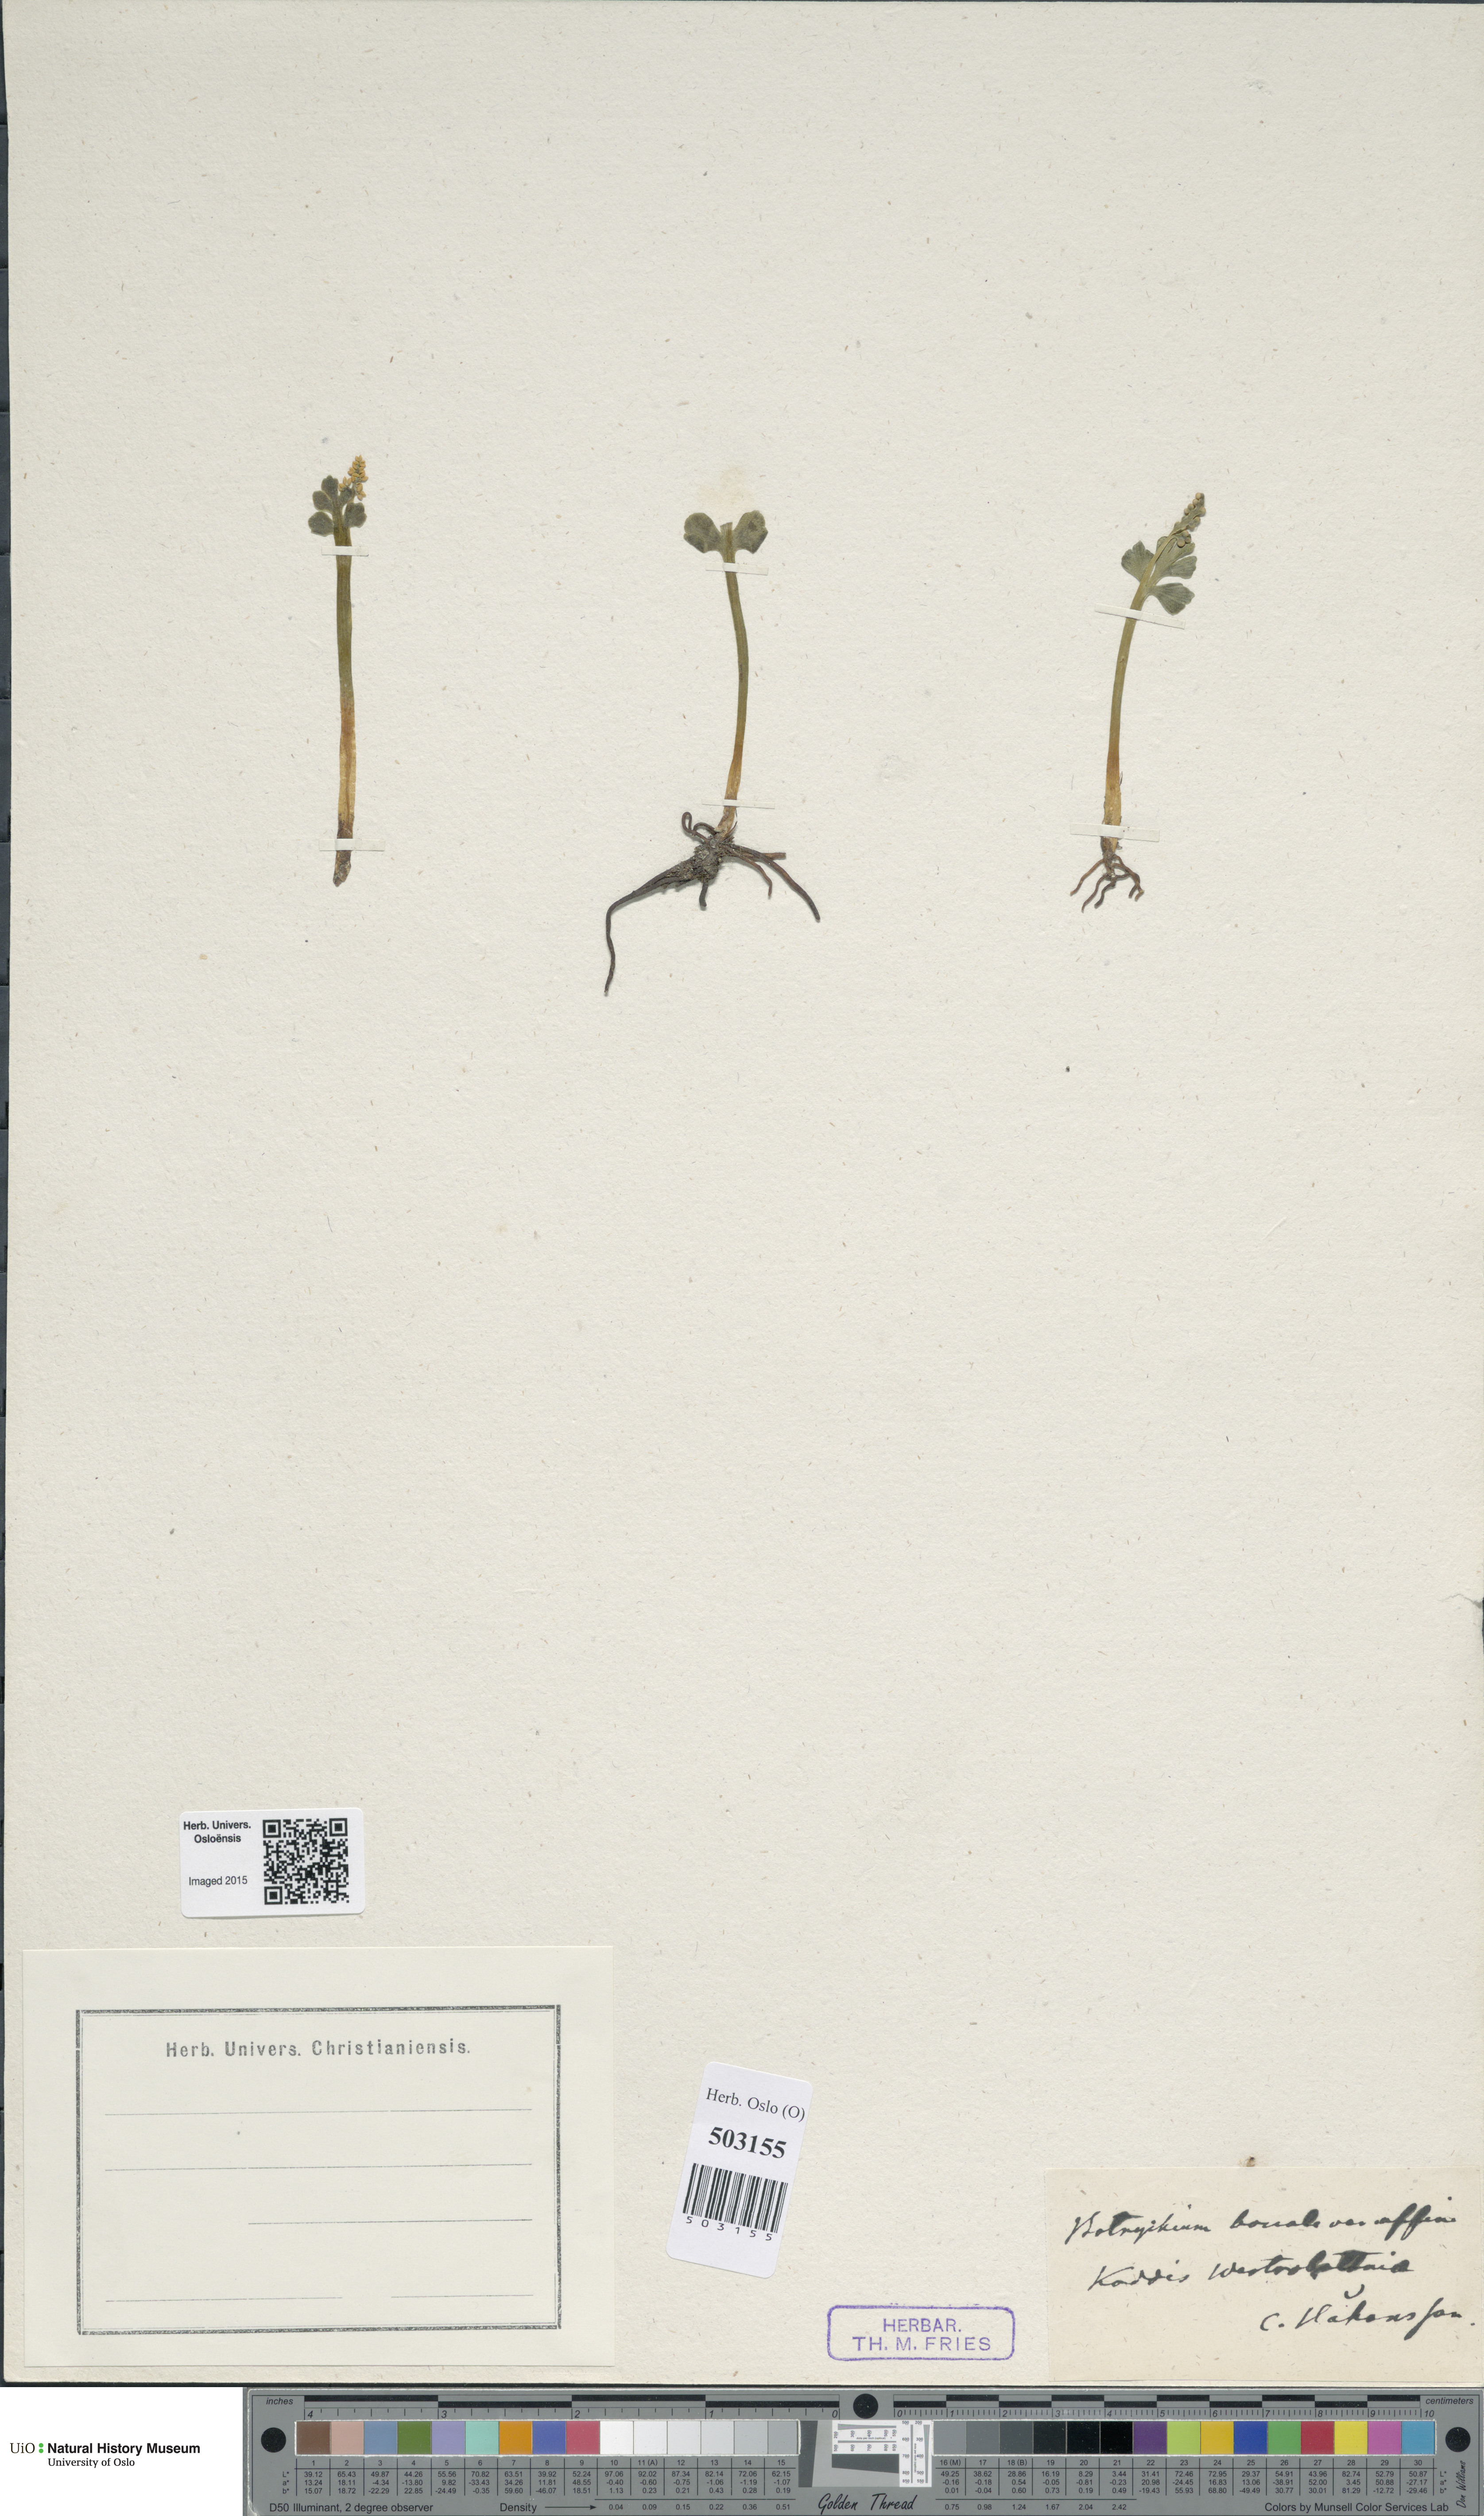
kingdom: Plantae
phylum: Tracheophyta
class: Polypodiopsida
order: Ophioglossales
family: Ophioglossaceae
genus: Botrychium
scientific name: Botrychium boreale
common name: Boreal moonwort
